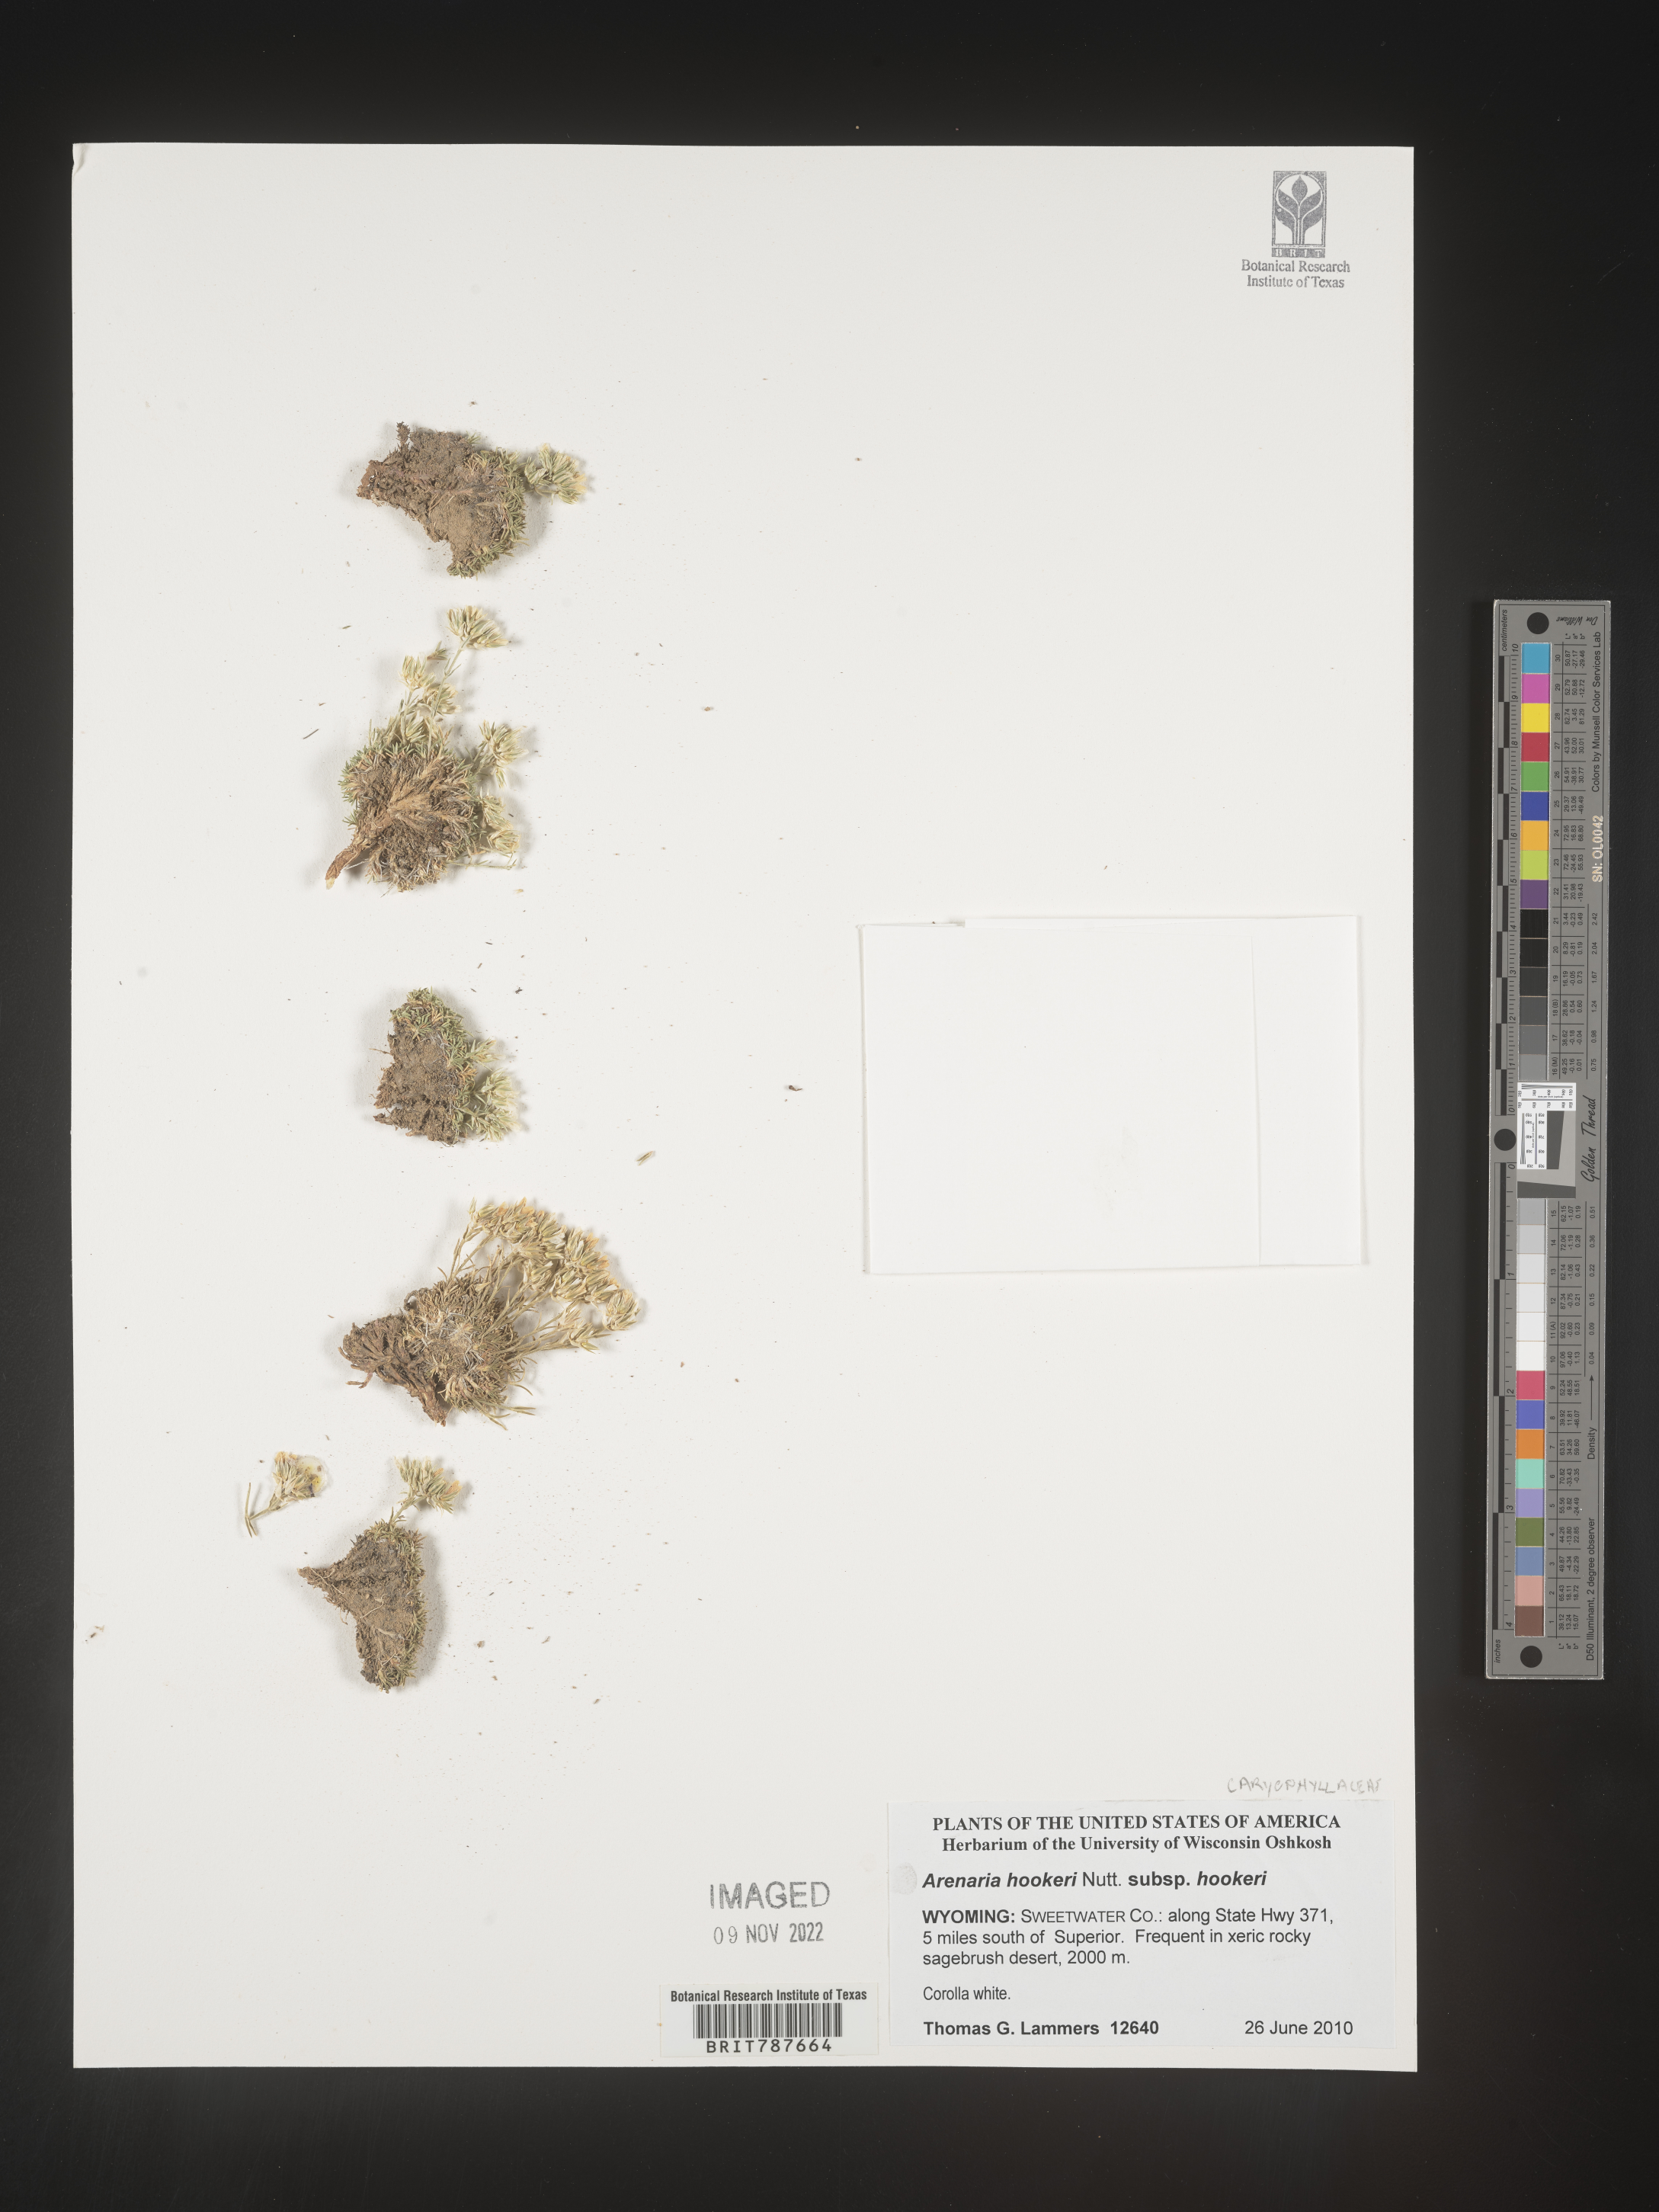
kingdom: Plantae
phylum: Tracheophyta
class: Magnoliopsida
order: Caryophyllales
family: Caryophyllaceae
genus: Arenaria
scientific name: Arenaria
